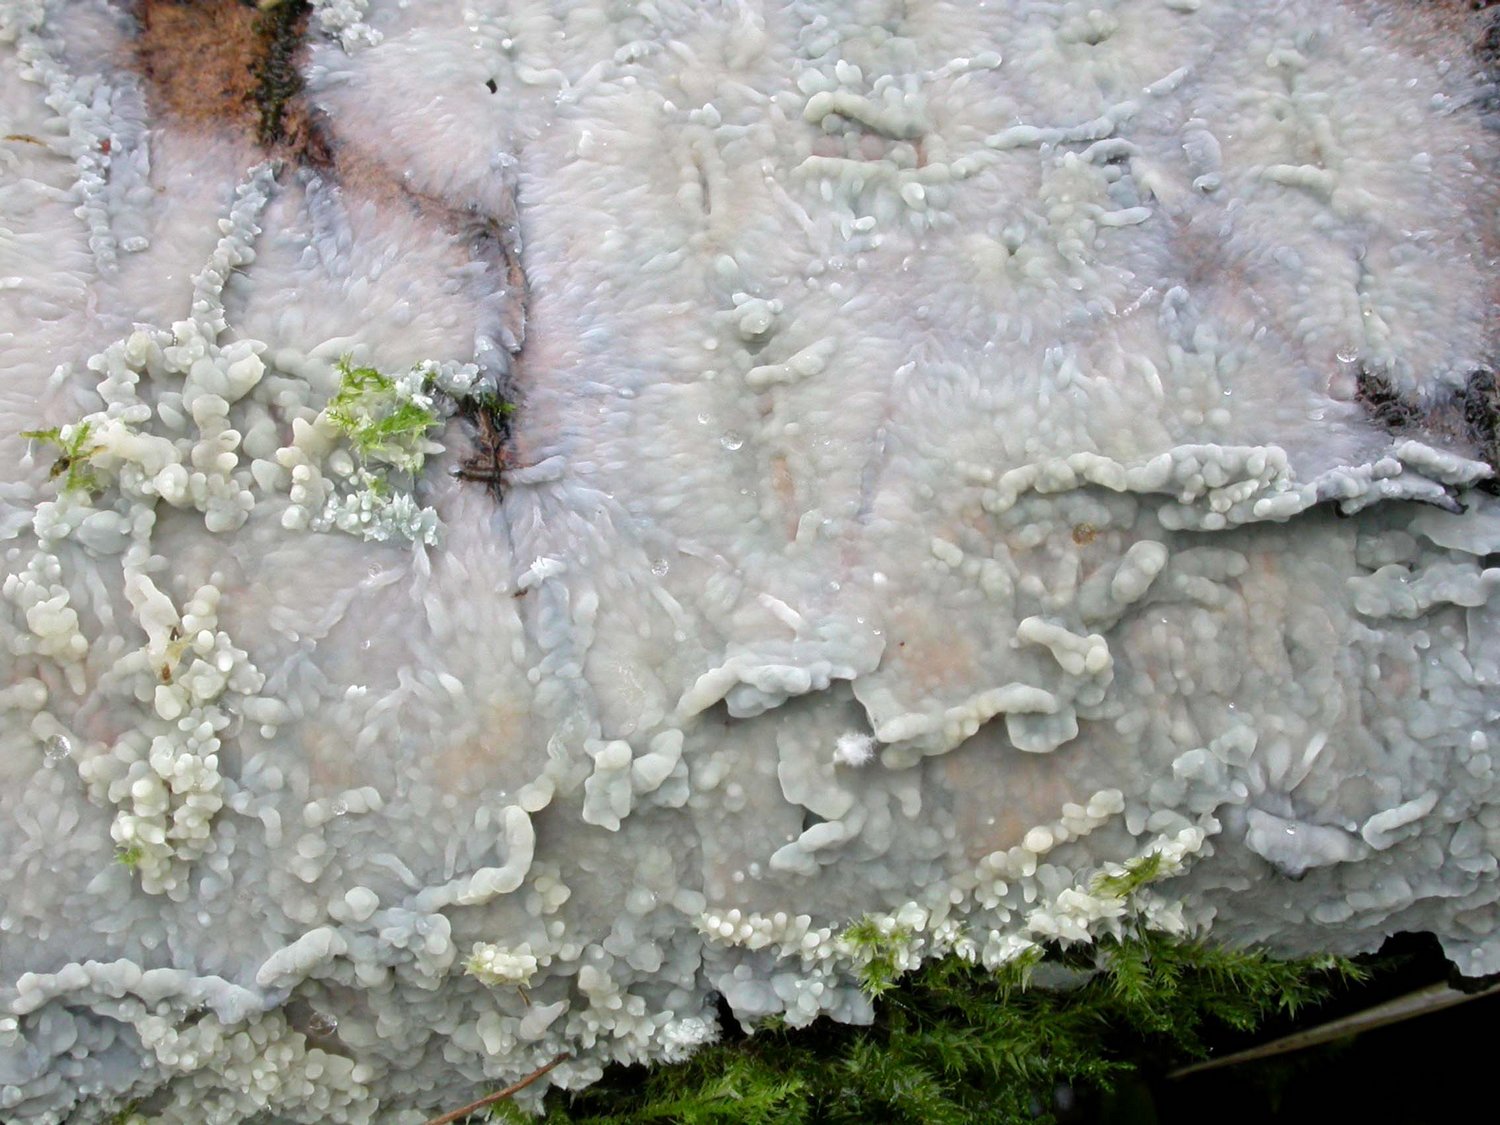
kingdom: Fungi
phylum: Basidiomycota
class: Agaricomycetes
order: Agaricales
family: Radulomycetaceae
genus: Radulomyces
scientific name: Radulomyces confluens
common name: glat naftalinskind
